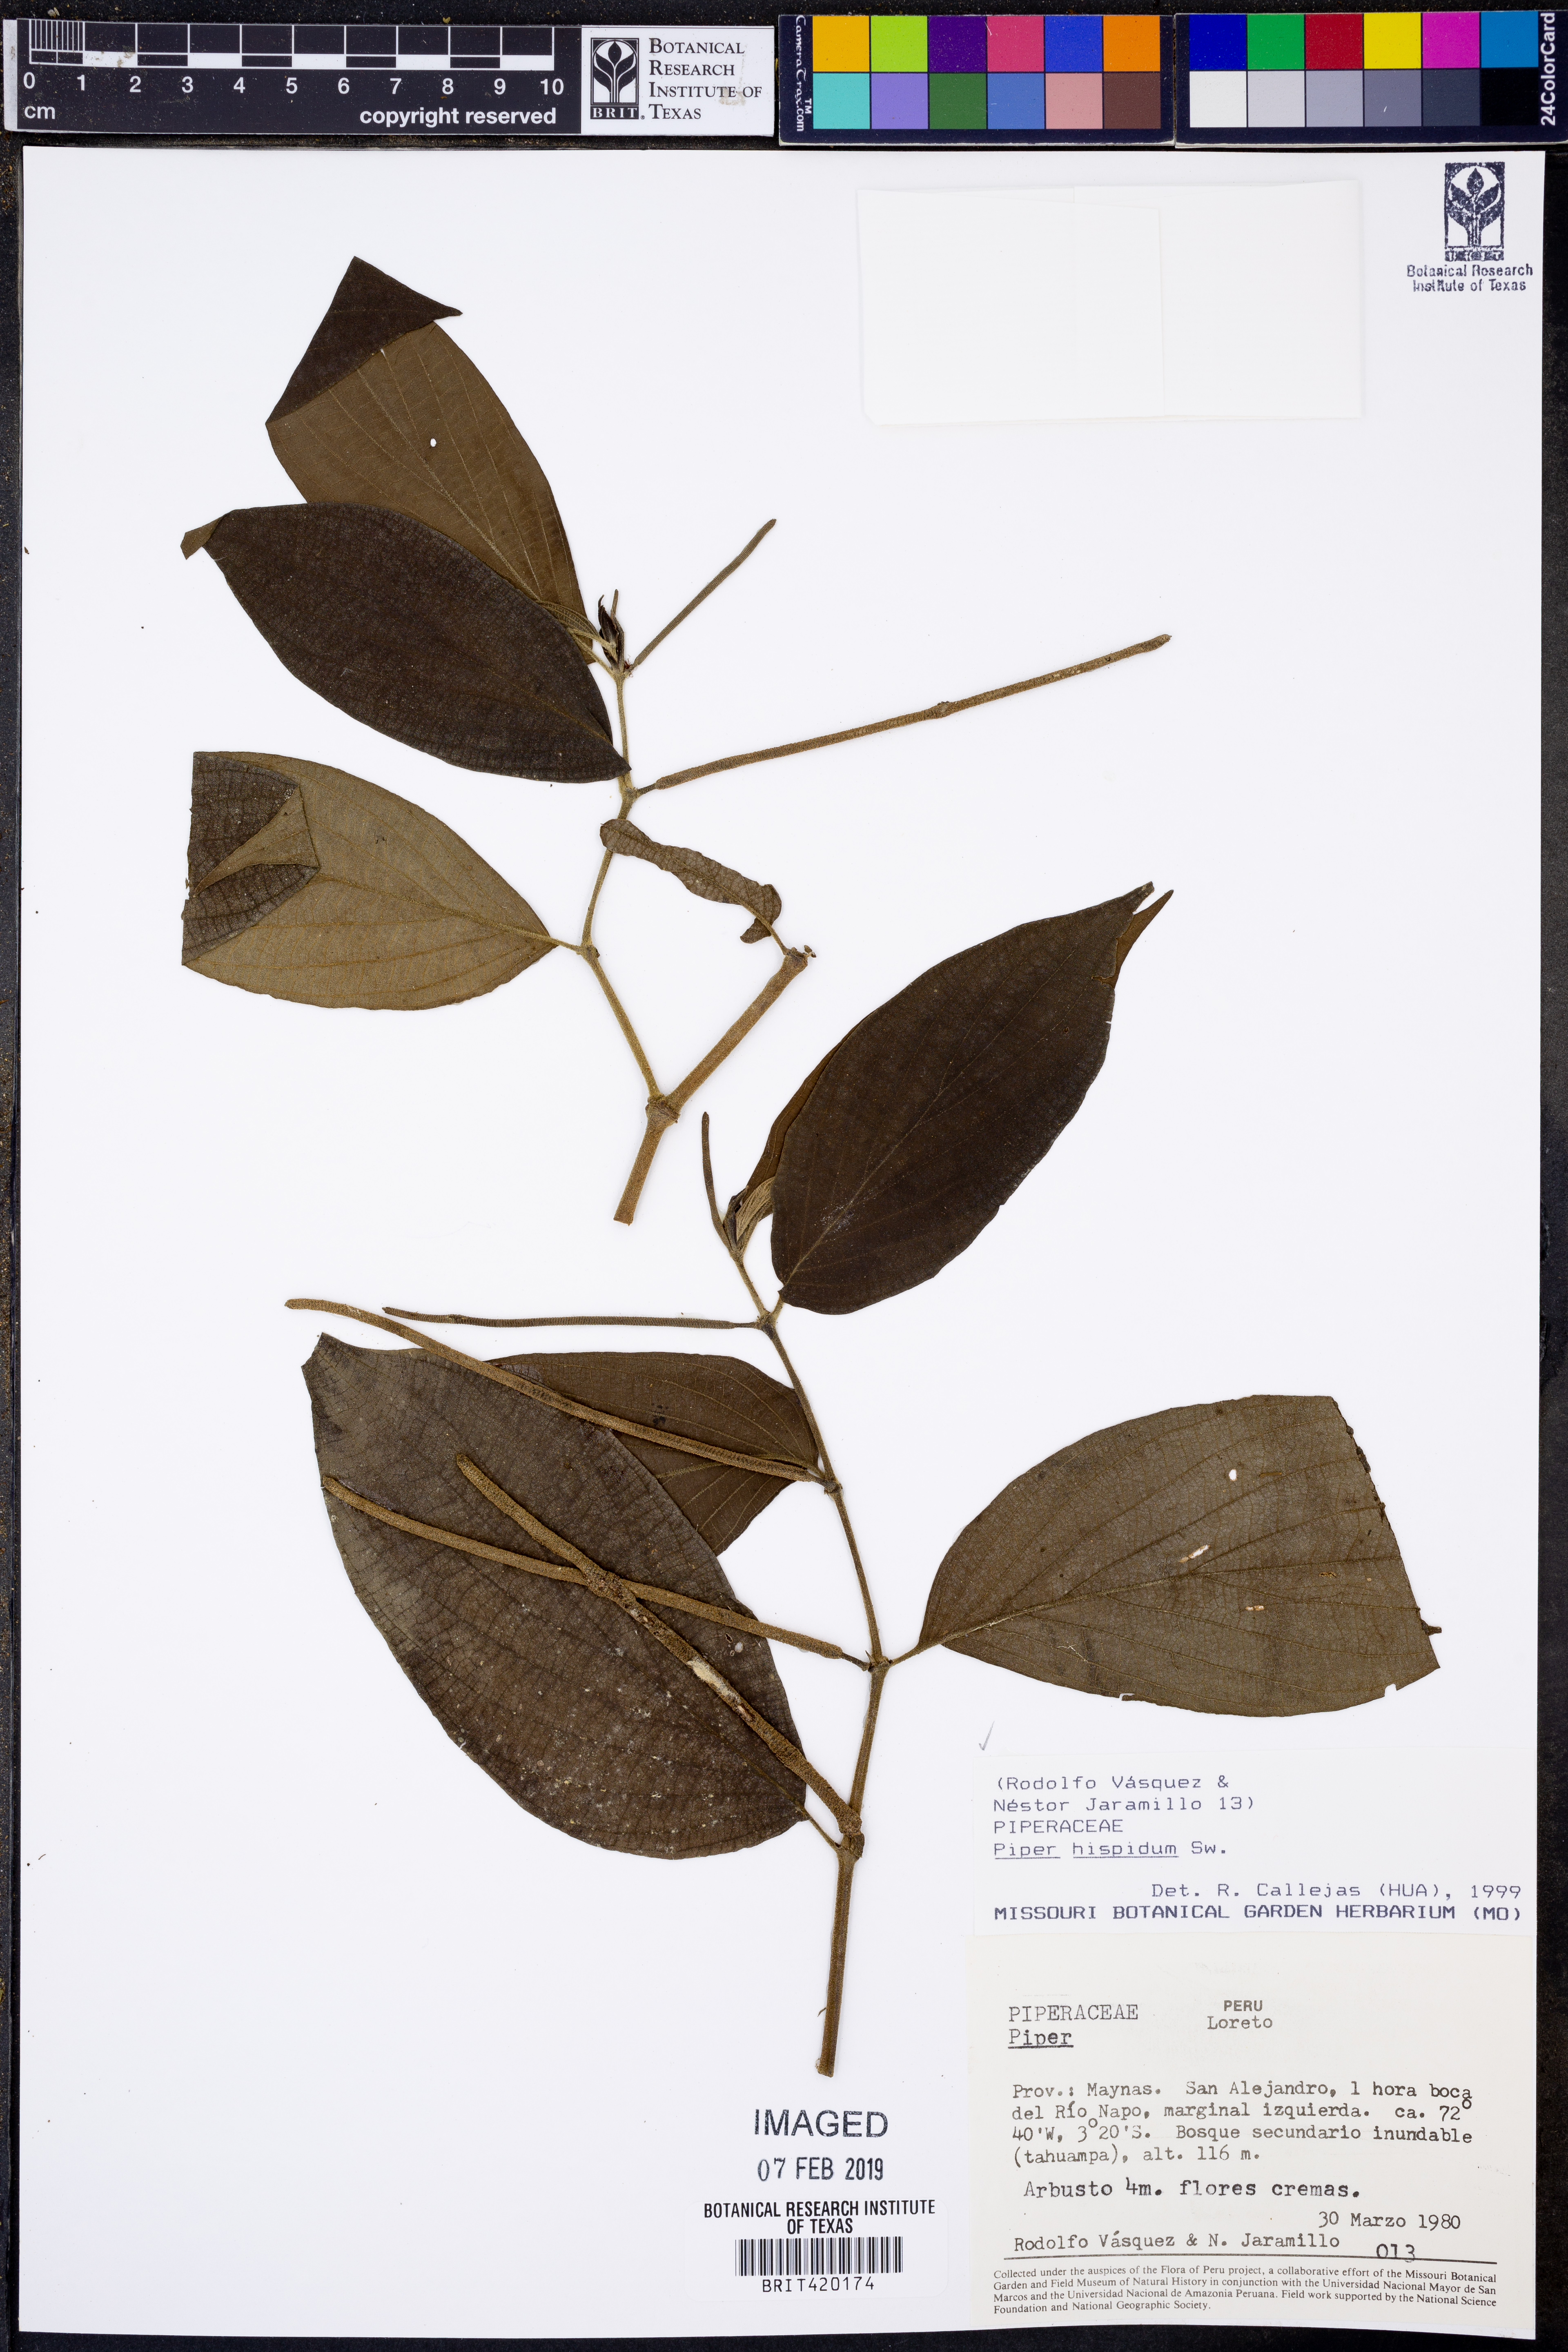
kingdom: Plantae
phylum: Tracheophyta
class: Magnoliopsida
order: Piperales
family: Piperaceae
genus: Piper
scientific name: Piper hispidum
